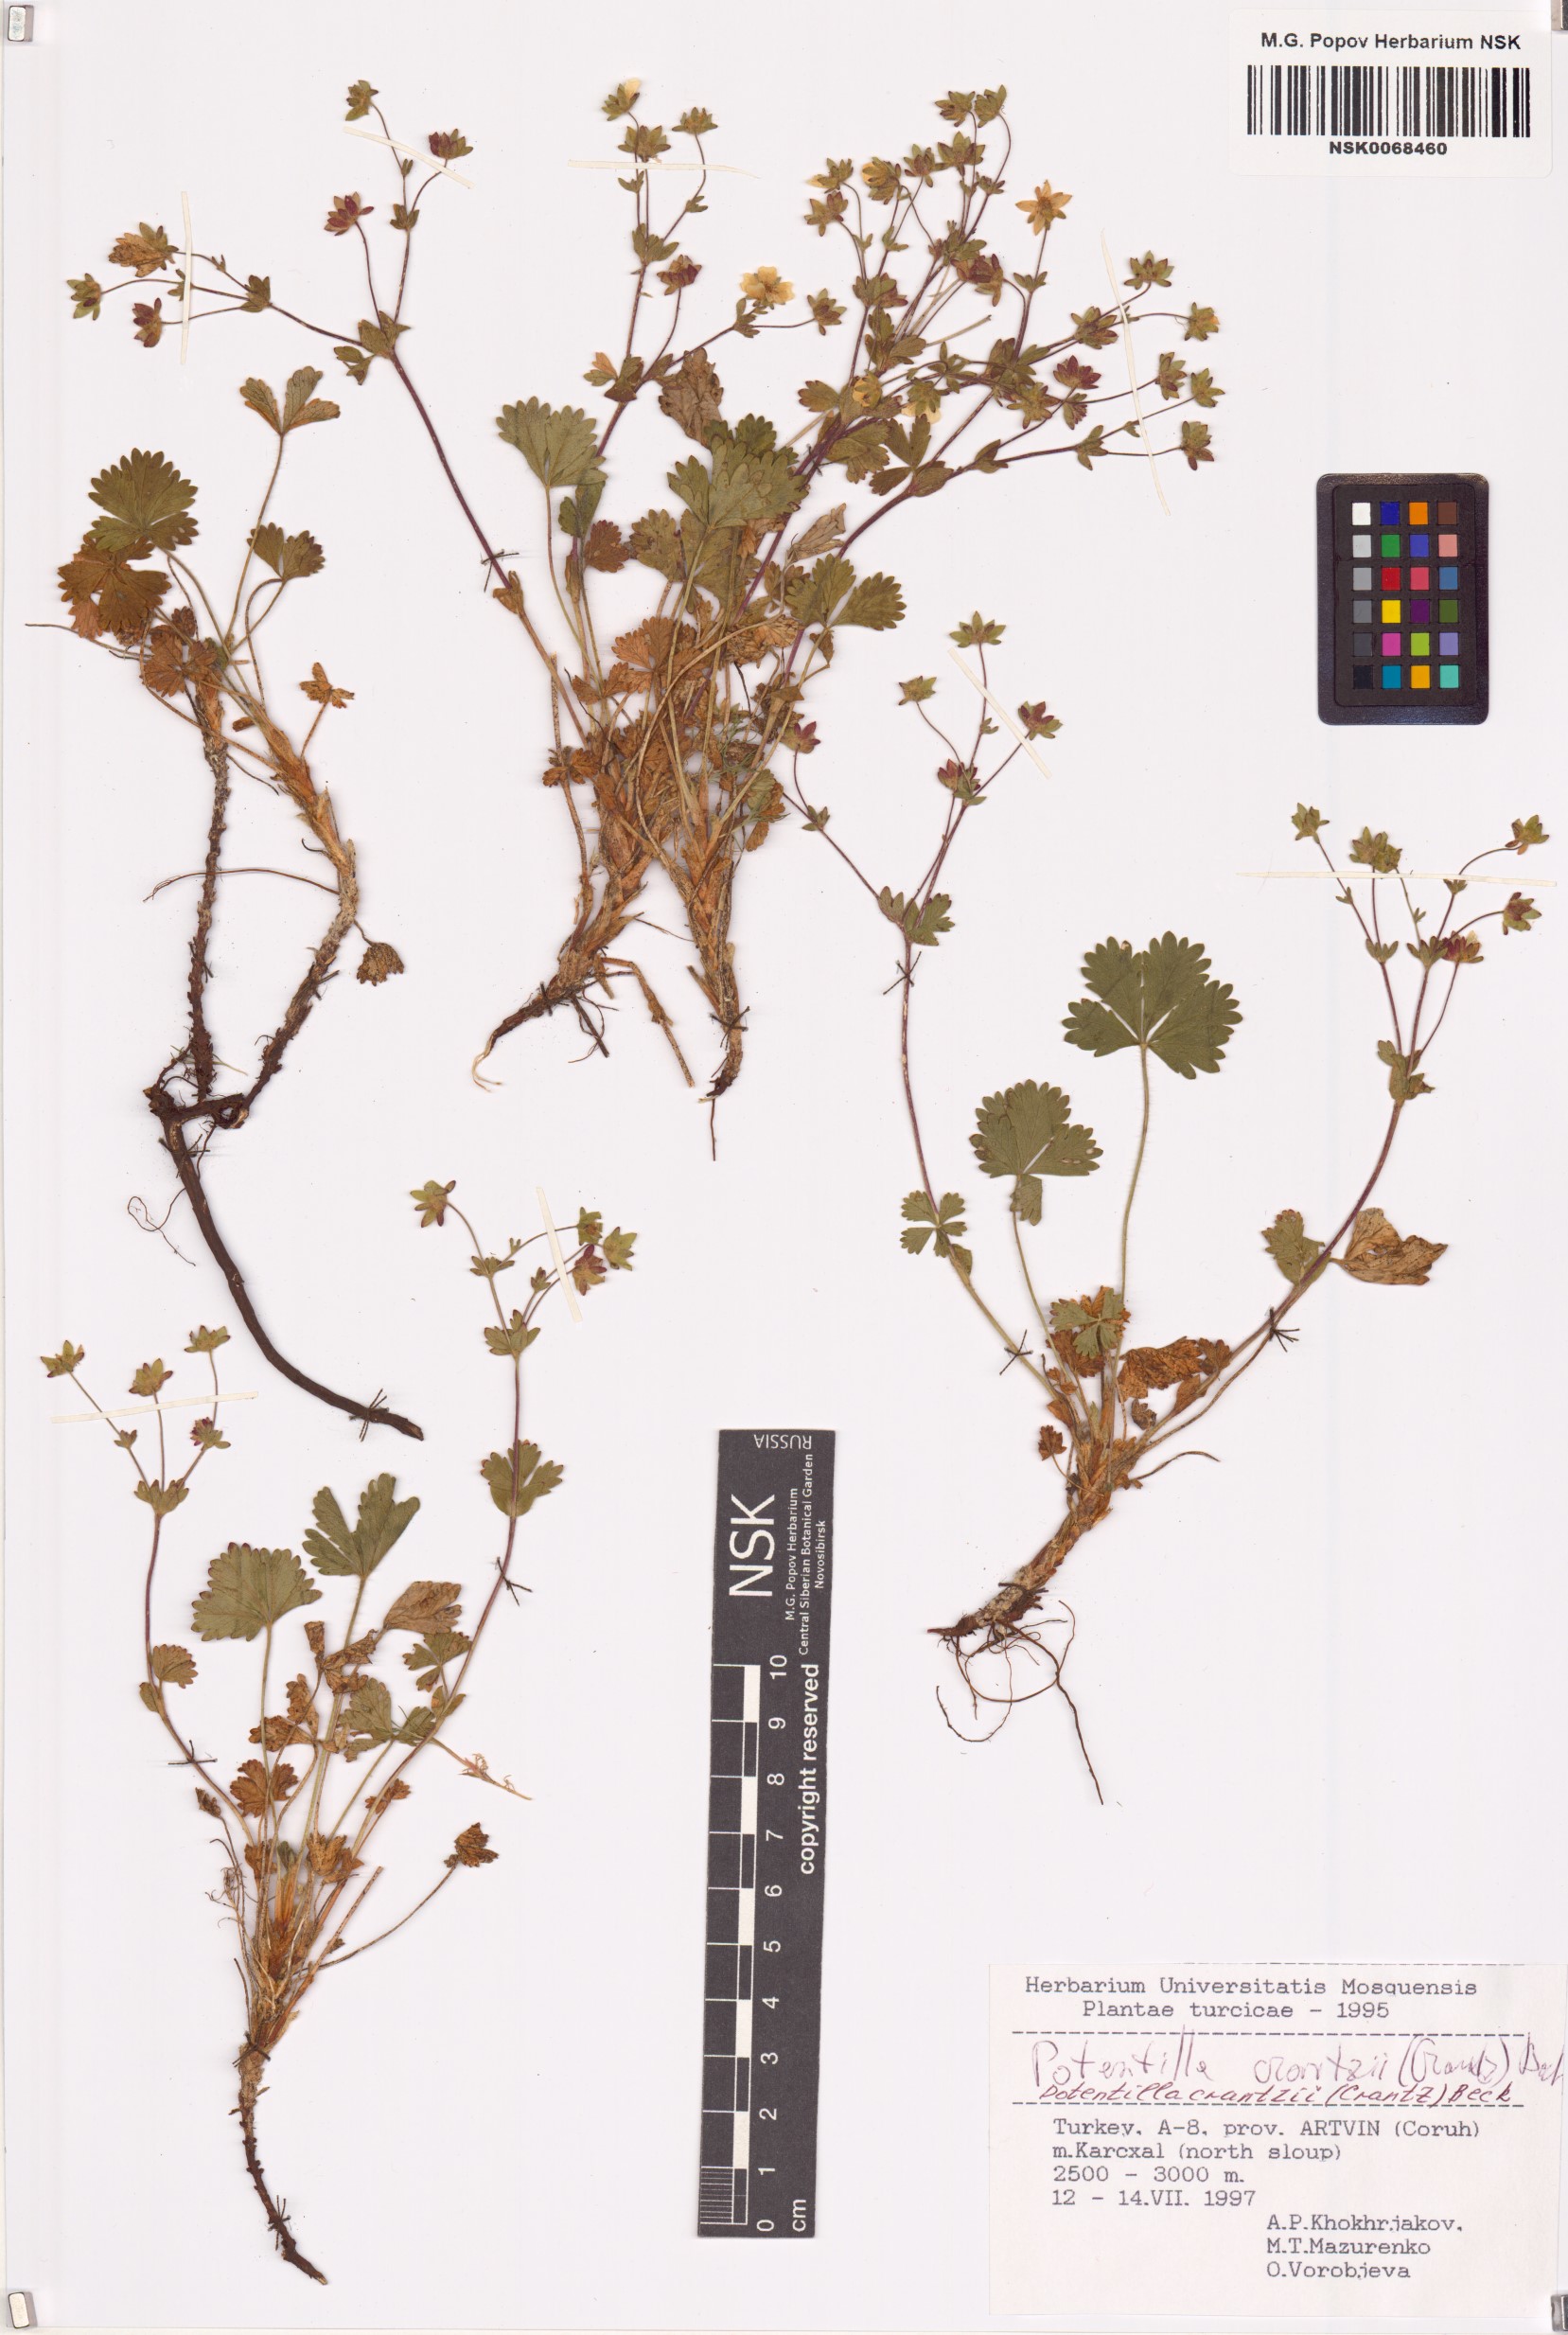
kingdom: Plantae
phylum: Tracheophyta
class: Magnoliopsida
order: Rosales
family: Rosaceae
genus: Potentilla
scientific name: Potentilla crantzii
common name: Alpine cinquefoil
